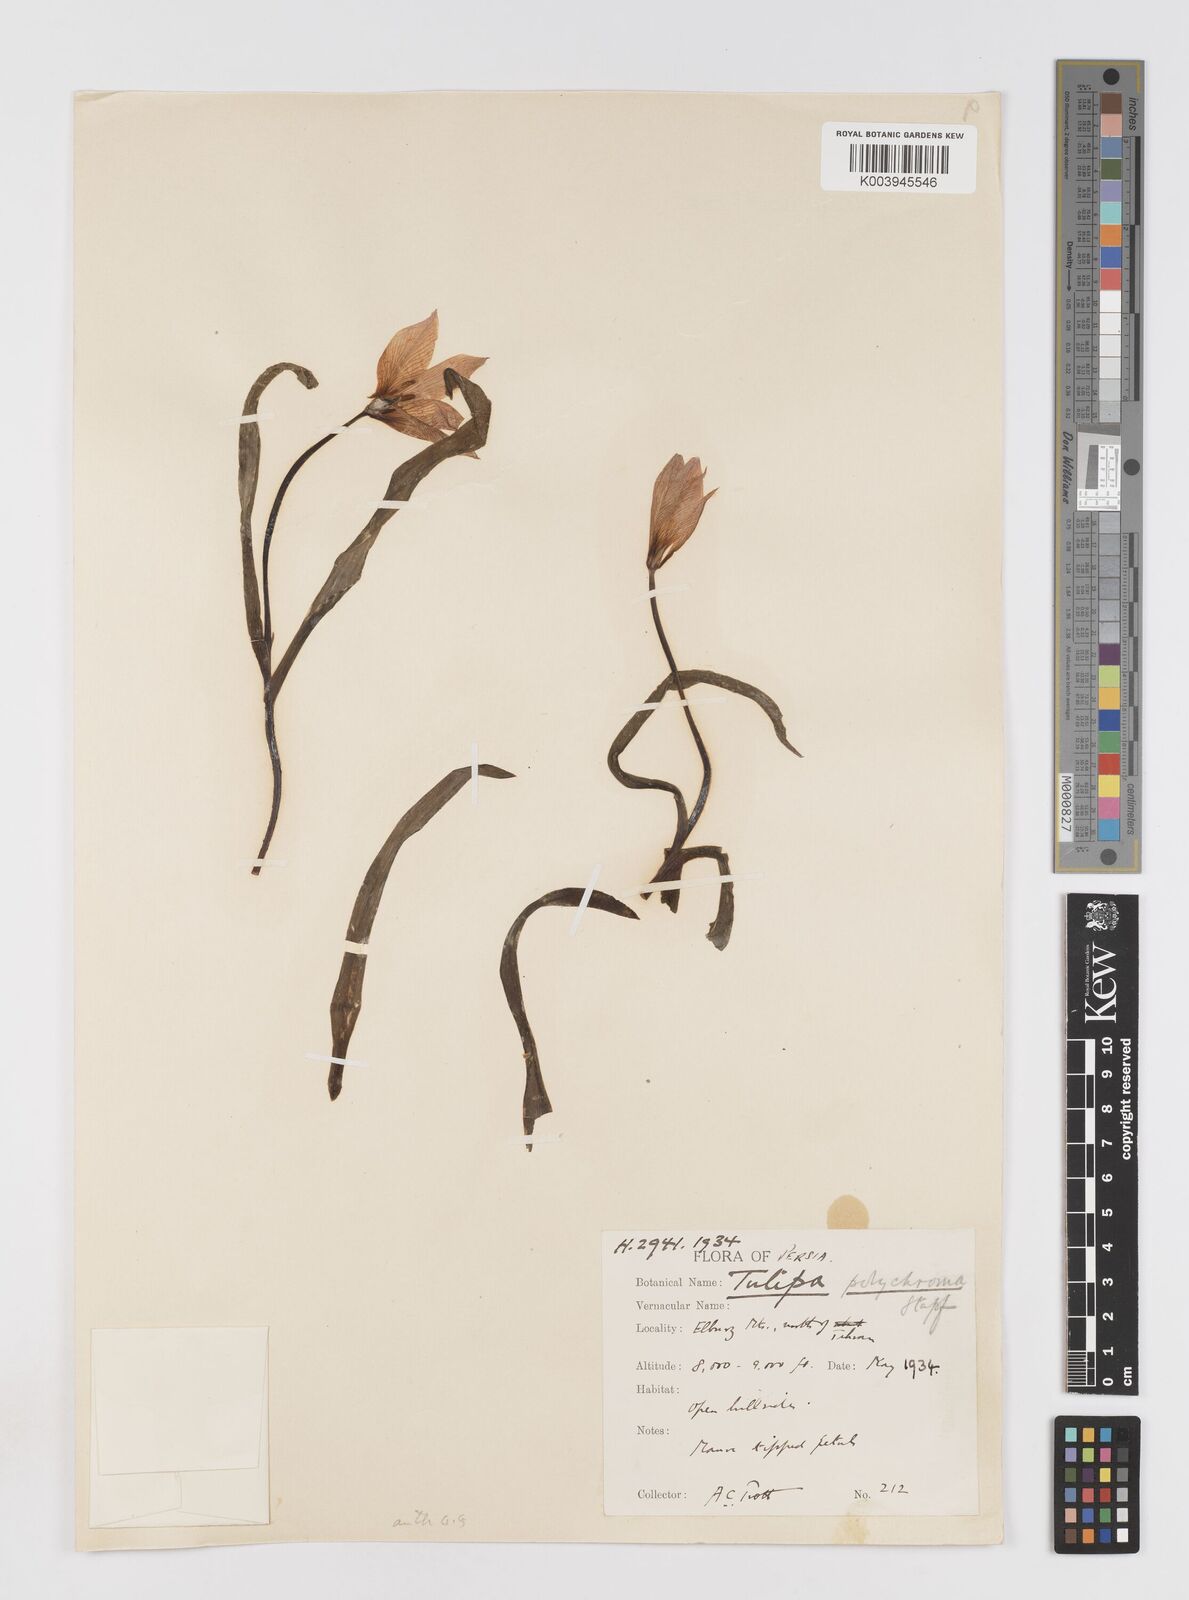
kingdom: Plantae
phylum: Tracheophyta
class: Liliopsida
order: Liliales
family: Liliaceae
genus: Tulipa
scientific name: Tulipa biflora
